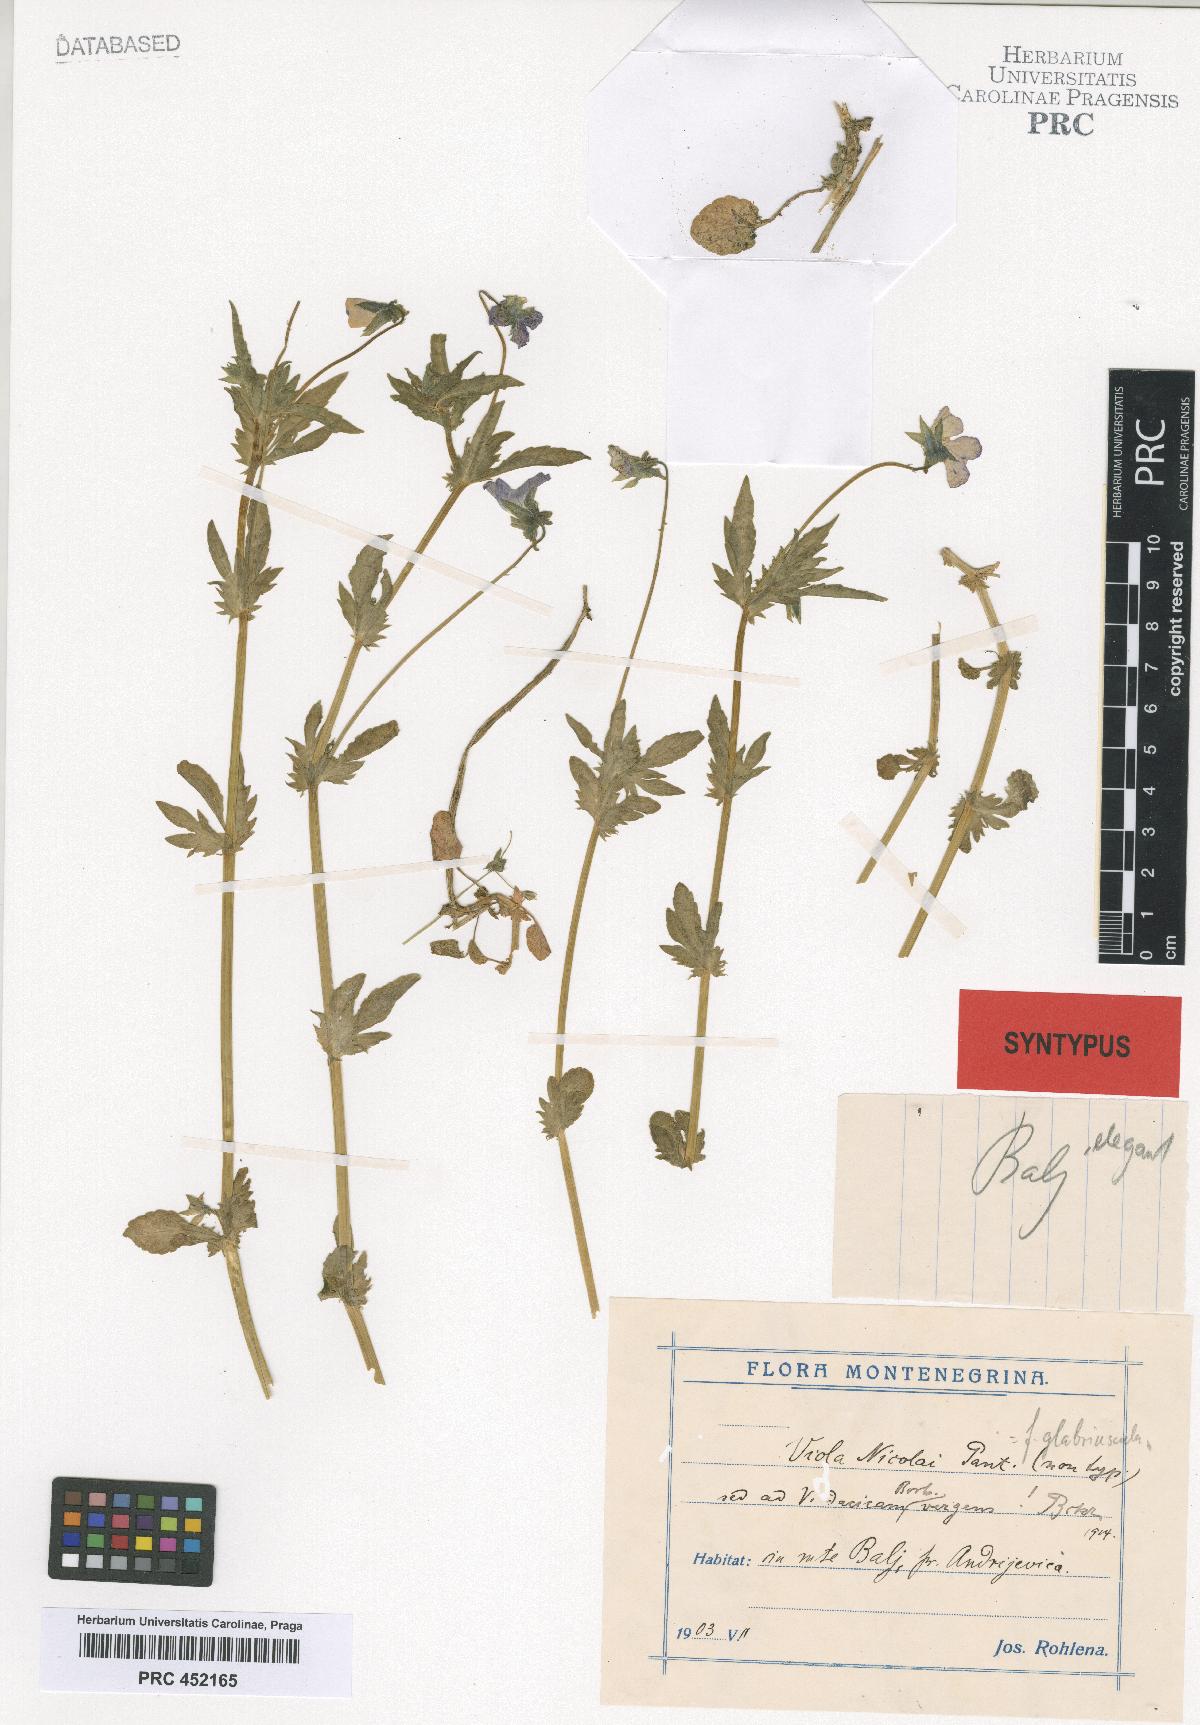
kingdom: Plantae
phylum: Tracheophyta
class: Magnoliopsida
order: Malpighiales
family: Violaceae
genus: Viola
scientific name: Viola orphanidis
